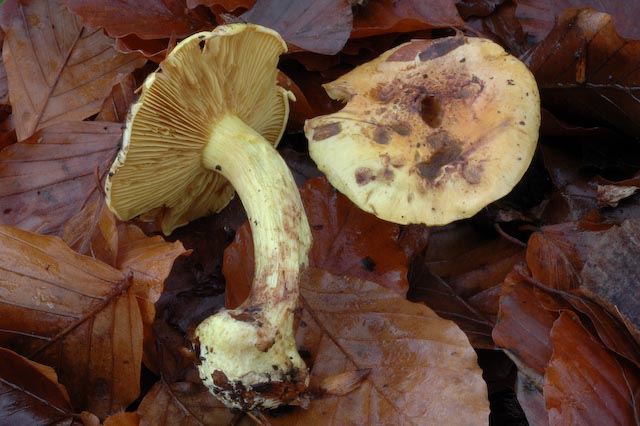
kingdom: Fungi
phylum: Basidiomycota
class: Agaricomycetes
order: Agaricales
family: Cortinariaceae
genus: Calonarius
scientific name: Calonarius splendens
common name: sirene-slørhat
